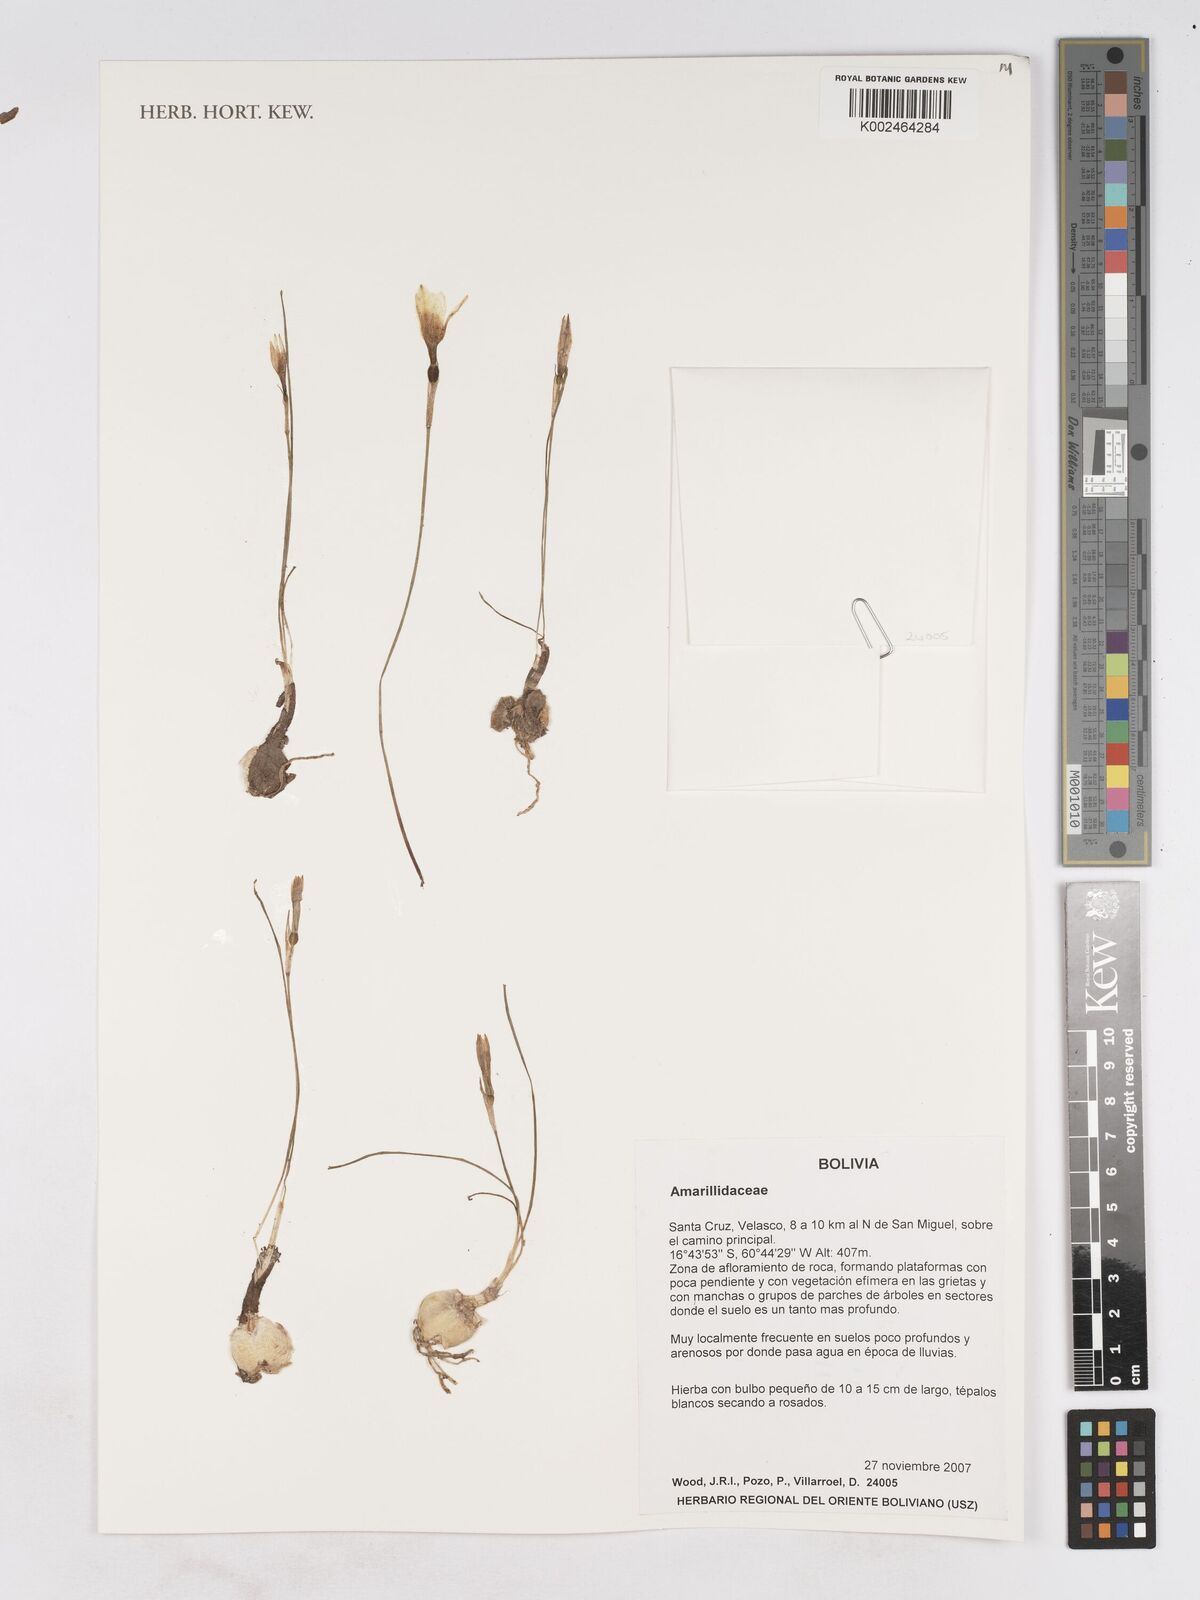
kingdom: Plantae
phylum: Tracheophyta
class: Liliopsida
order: Asparagales
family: Amaryllidaceae
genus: Zephyranthes
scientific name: Zephyranthes
